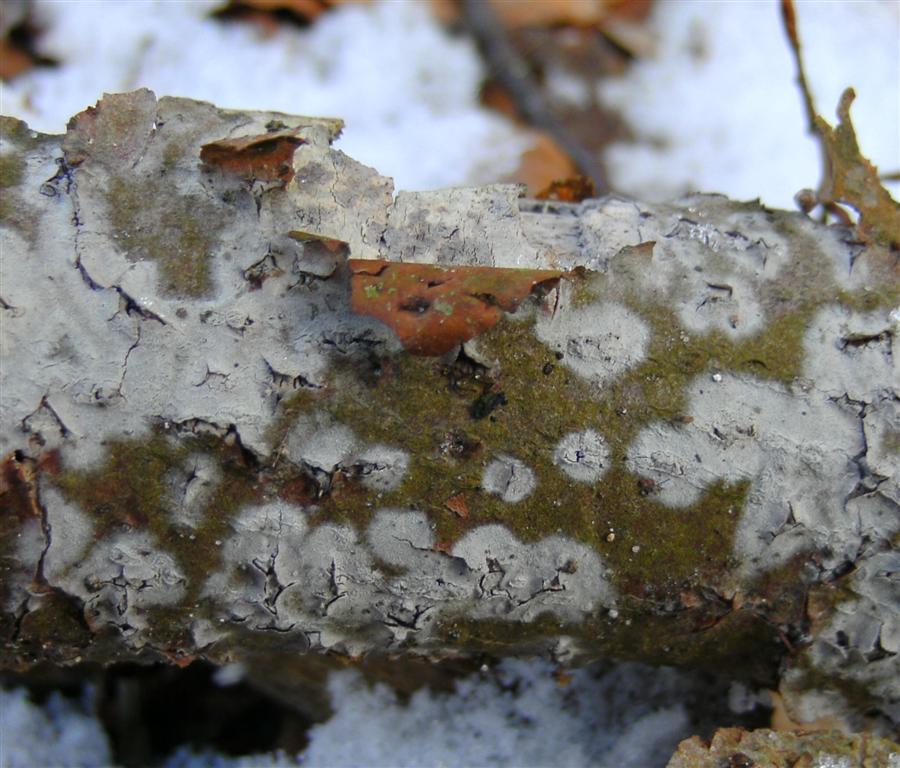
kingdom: Fungi
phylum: Basidiomycota
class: Agaricomycetes
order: Cantharellales
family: Hydnaceae
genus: Sistotrema
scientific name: Sistotrema brinkmannii
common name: bønnesporet kroneskorpe
